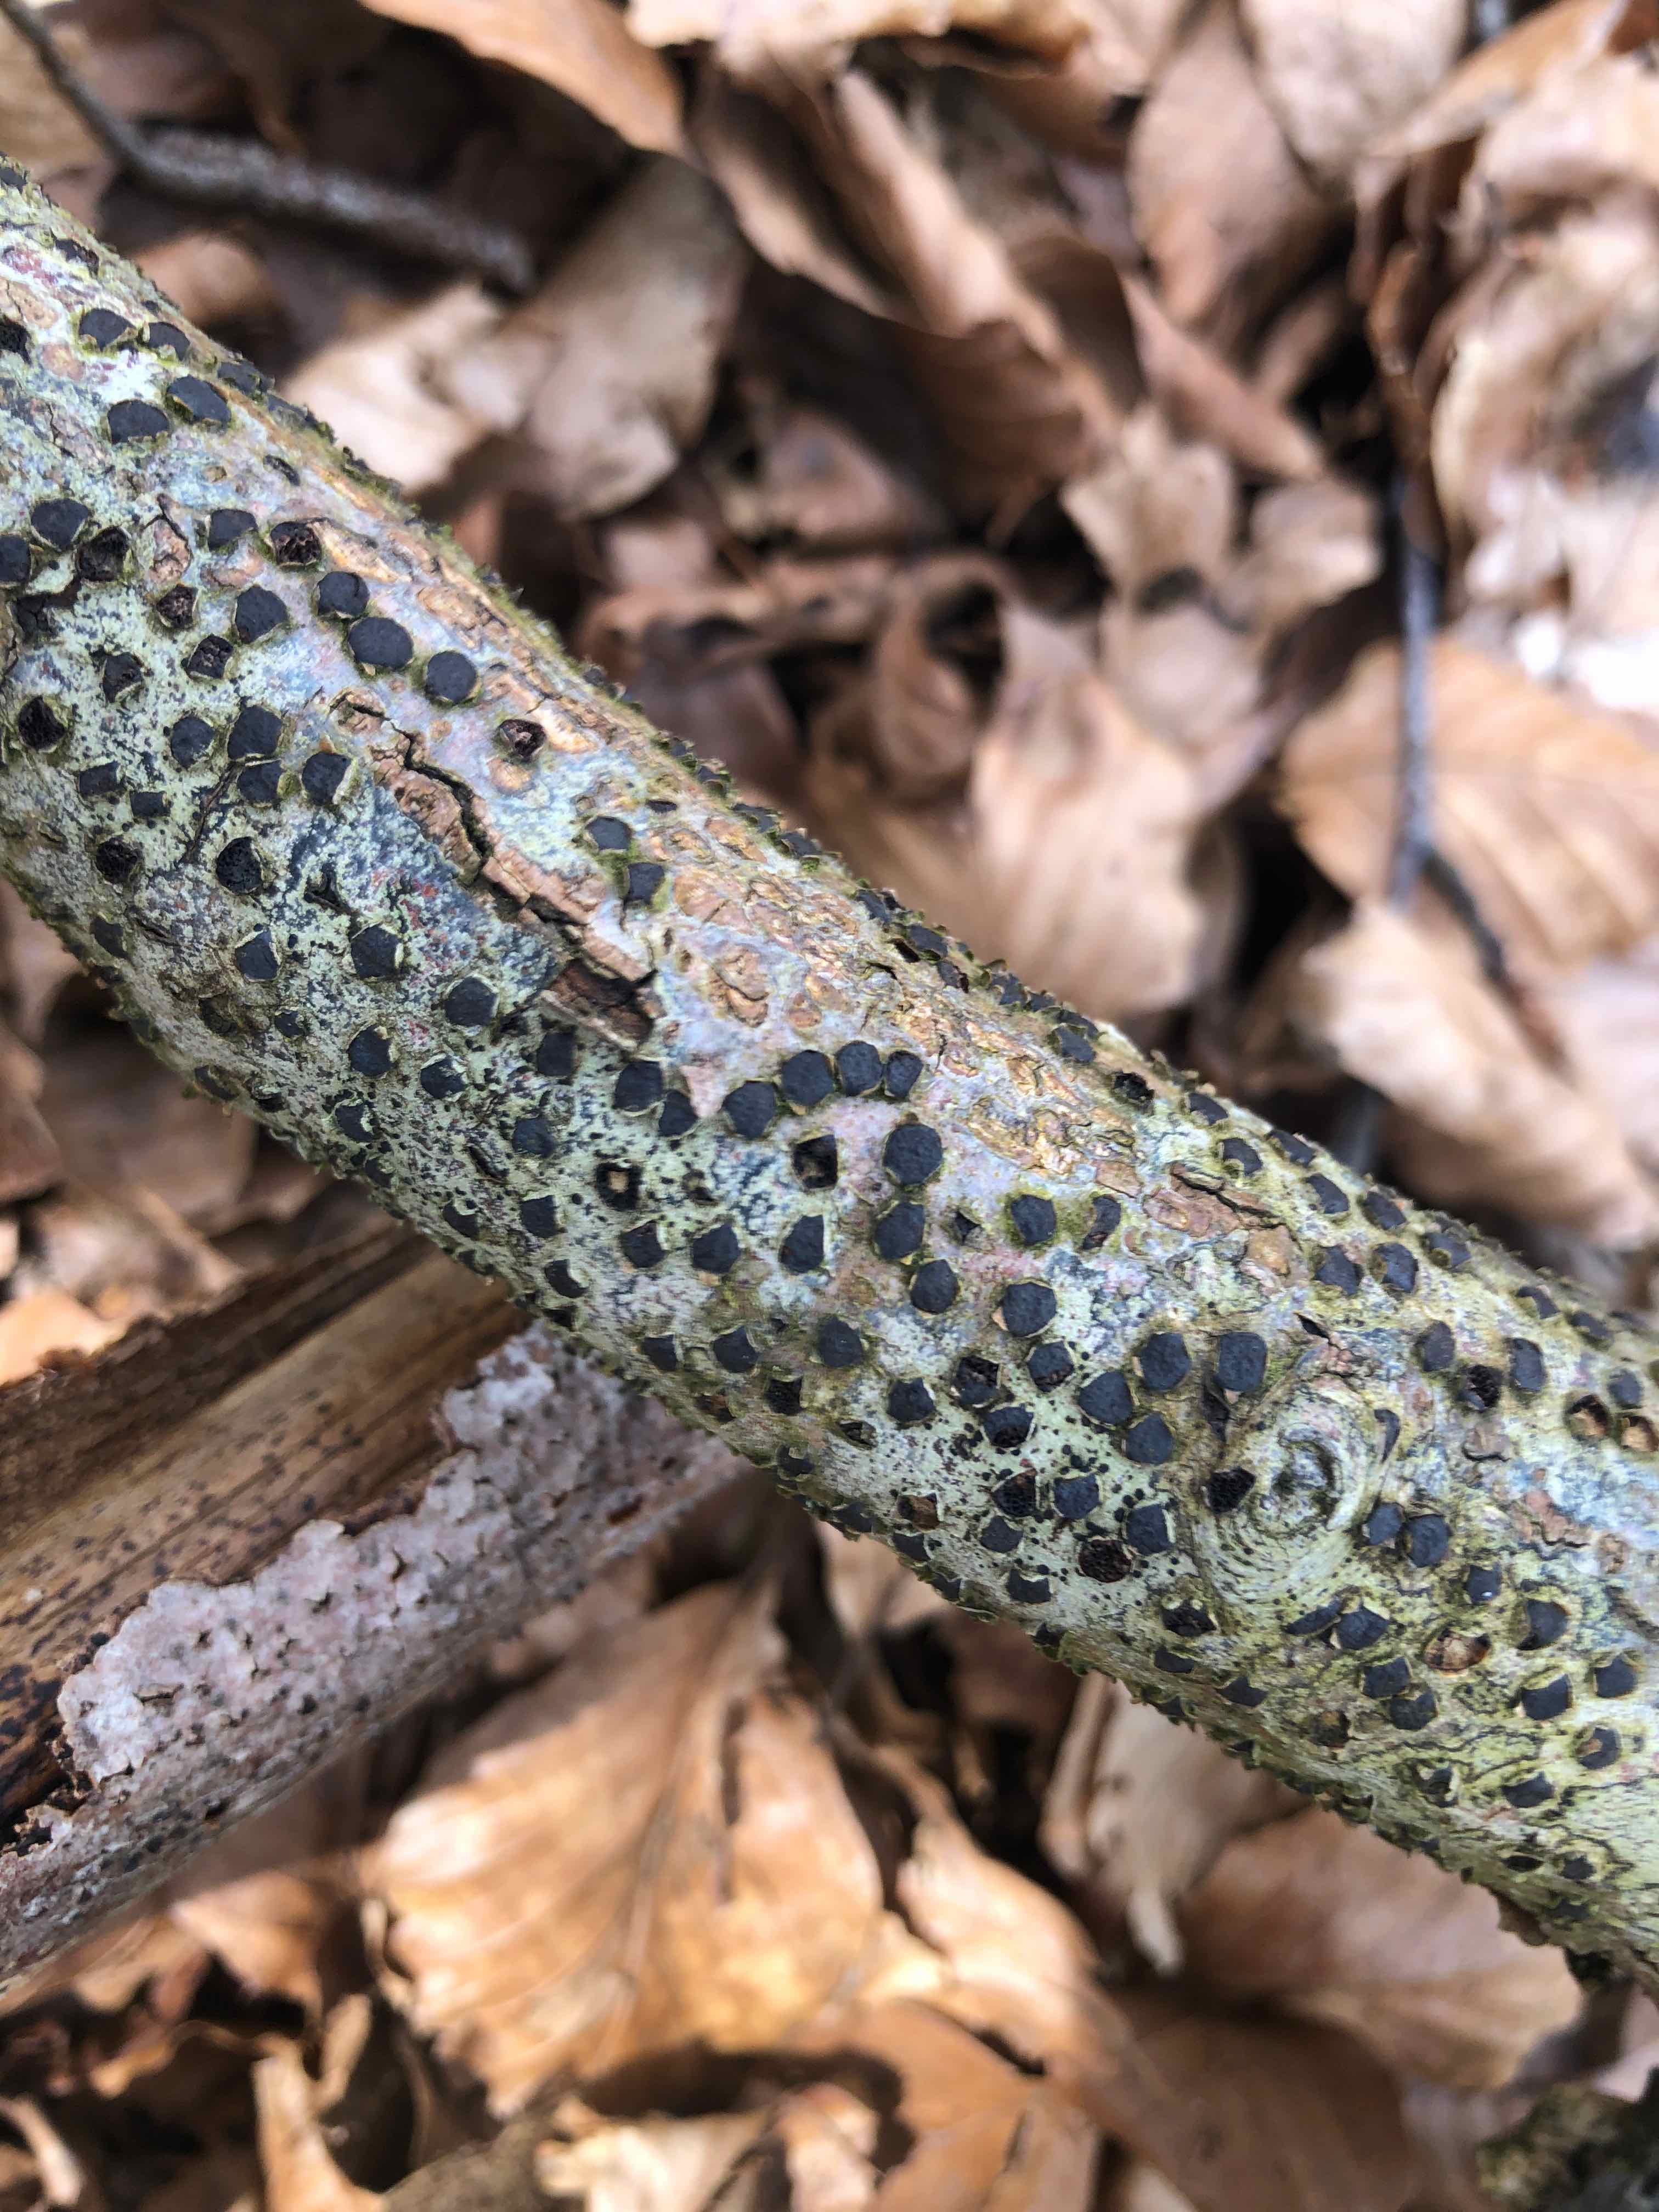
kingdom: Fungi
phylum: Ascomycota
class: Sordariomycetes
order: Xylariales
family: Diatrypaceae
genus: Diatrype
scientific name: Diatrype disciformis
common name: kant-kulskorpe
